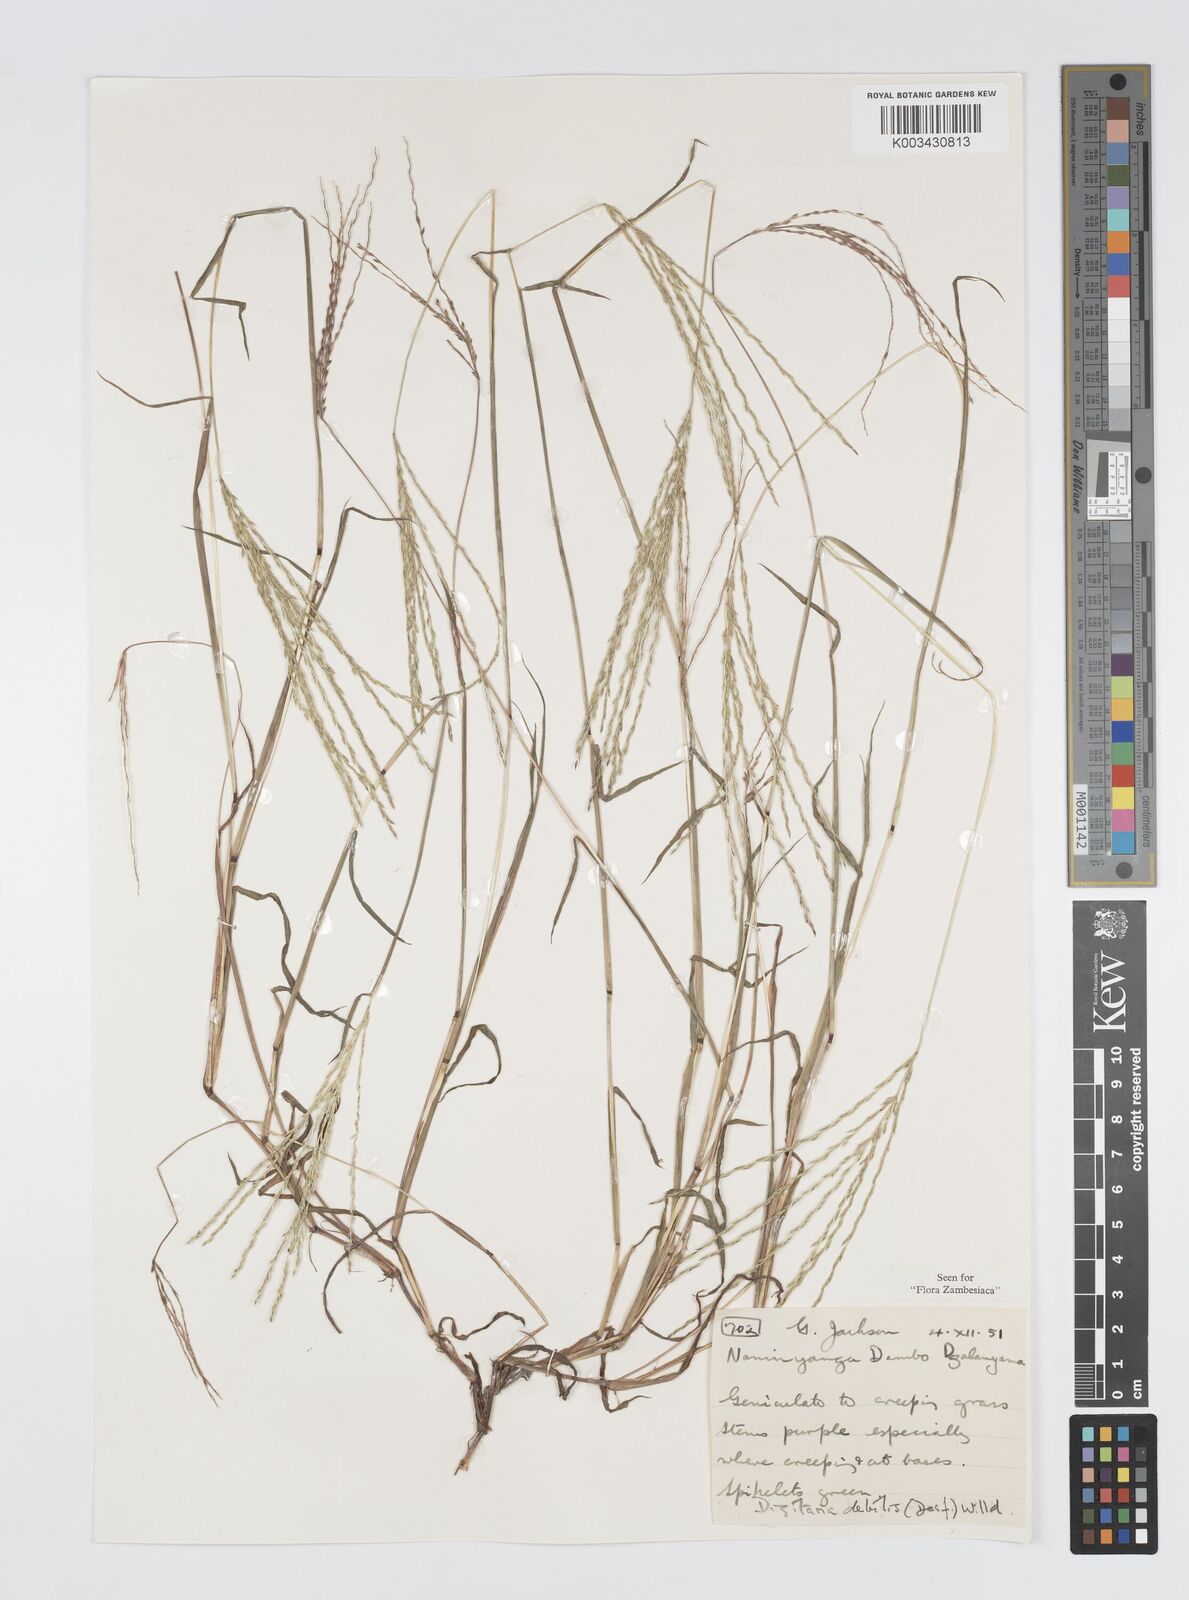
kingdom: Plantae
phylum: Tracheophyta
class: Liliopsida
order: Poales
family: Poaceae
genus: Digitaria
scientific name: Digitaria debilis
